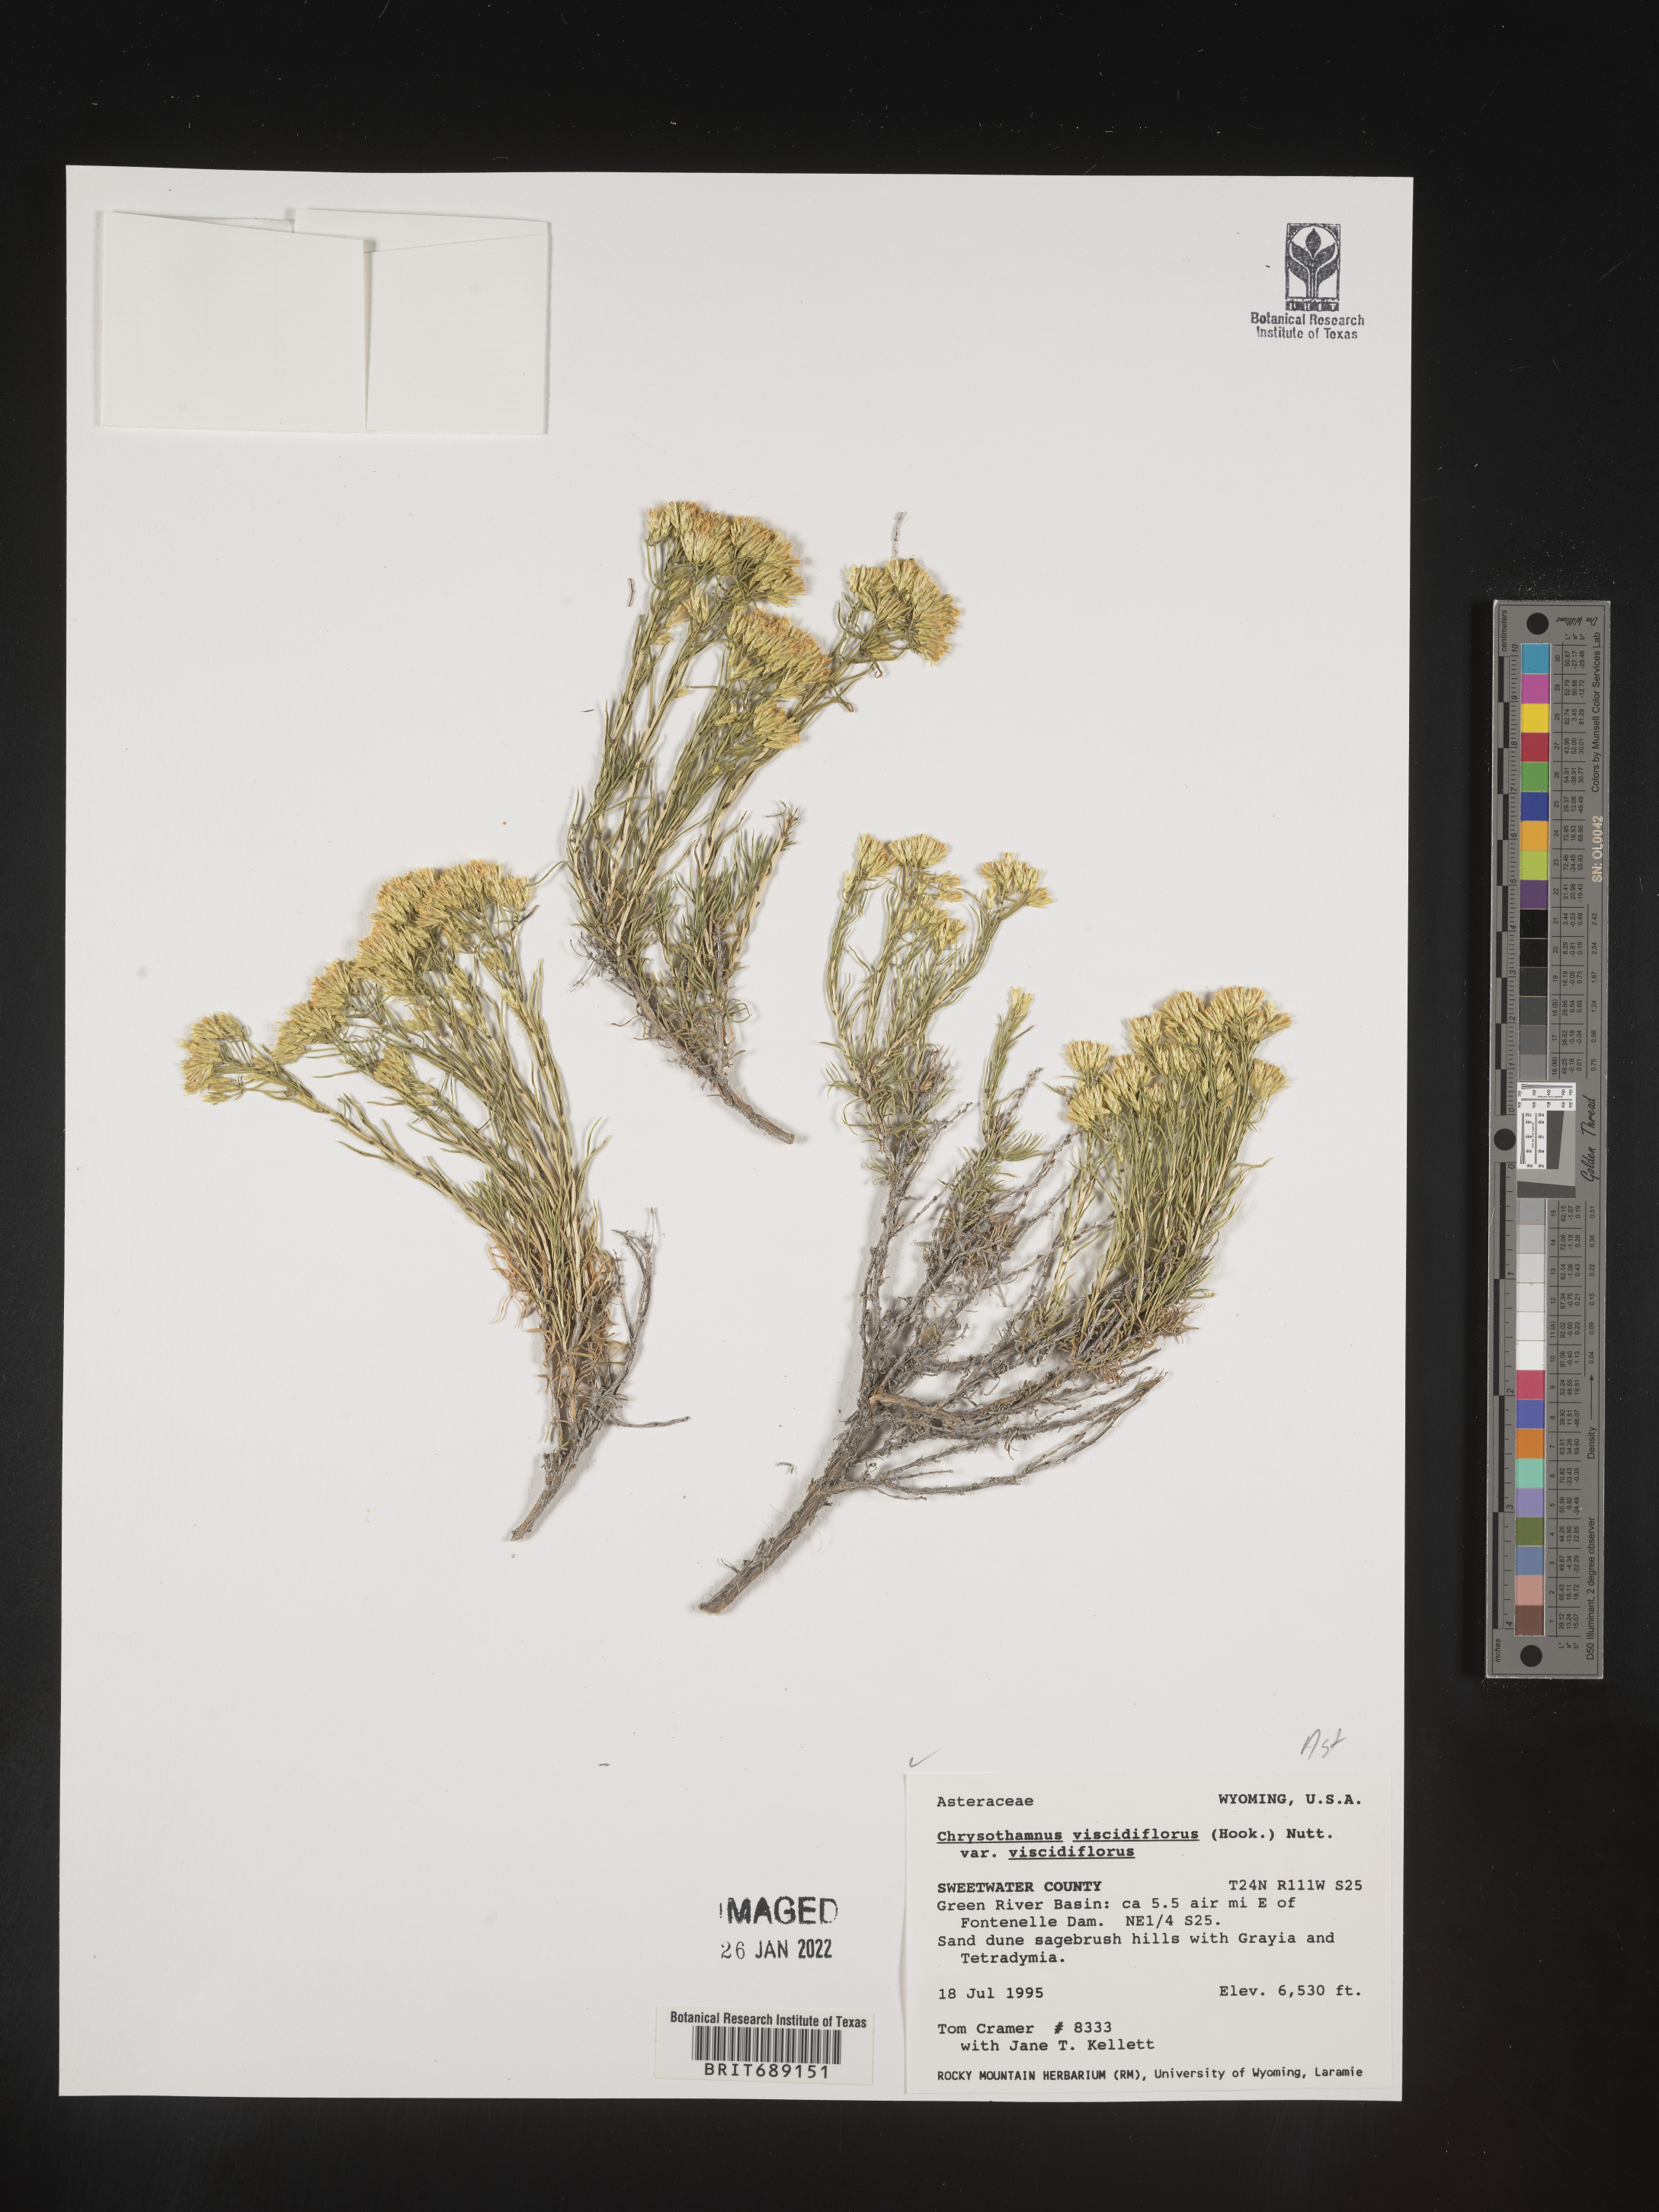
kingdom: Plantae
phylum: Tracheophyta
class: Magnoliopsida
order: Asterales
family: Asteraceae
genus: Chrysothamnus
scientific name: Chrysothamnus viscidiflorus
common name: Yellow rabbitbrush
